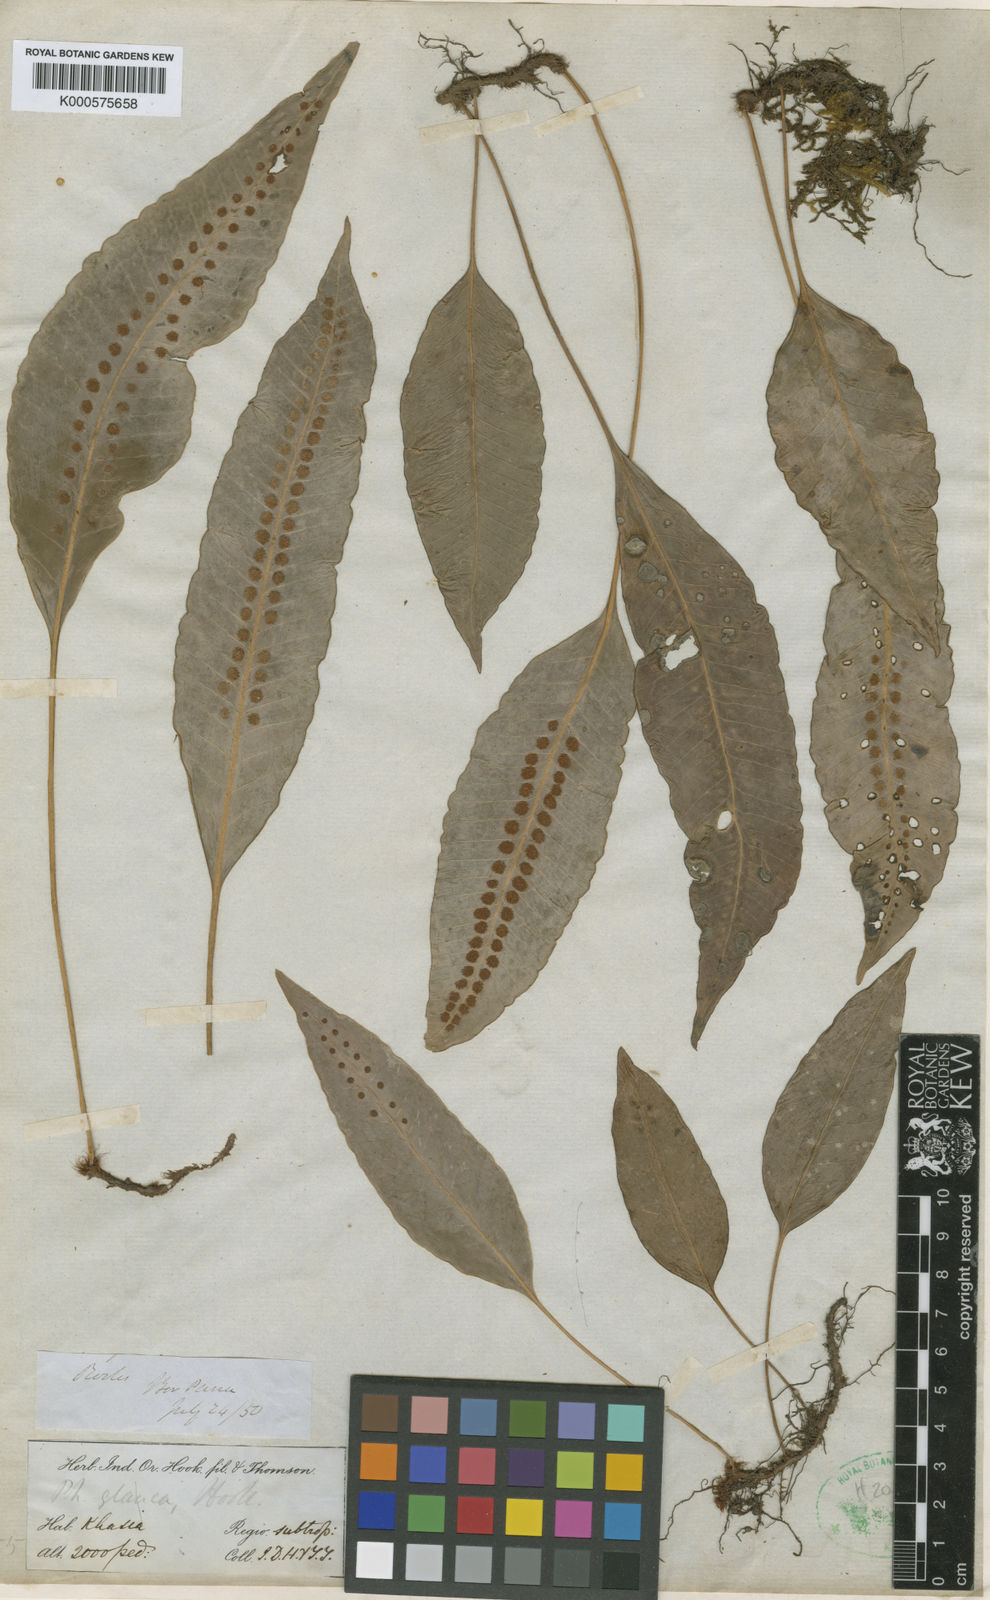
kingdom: Plantae
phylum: Tracheophyta
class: Polypodiopsida
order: Polypodiales
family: Polypodiaceae
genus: Selliguea
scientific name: Selliguea griffithiana
